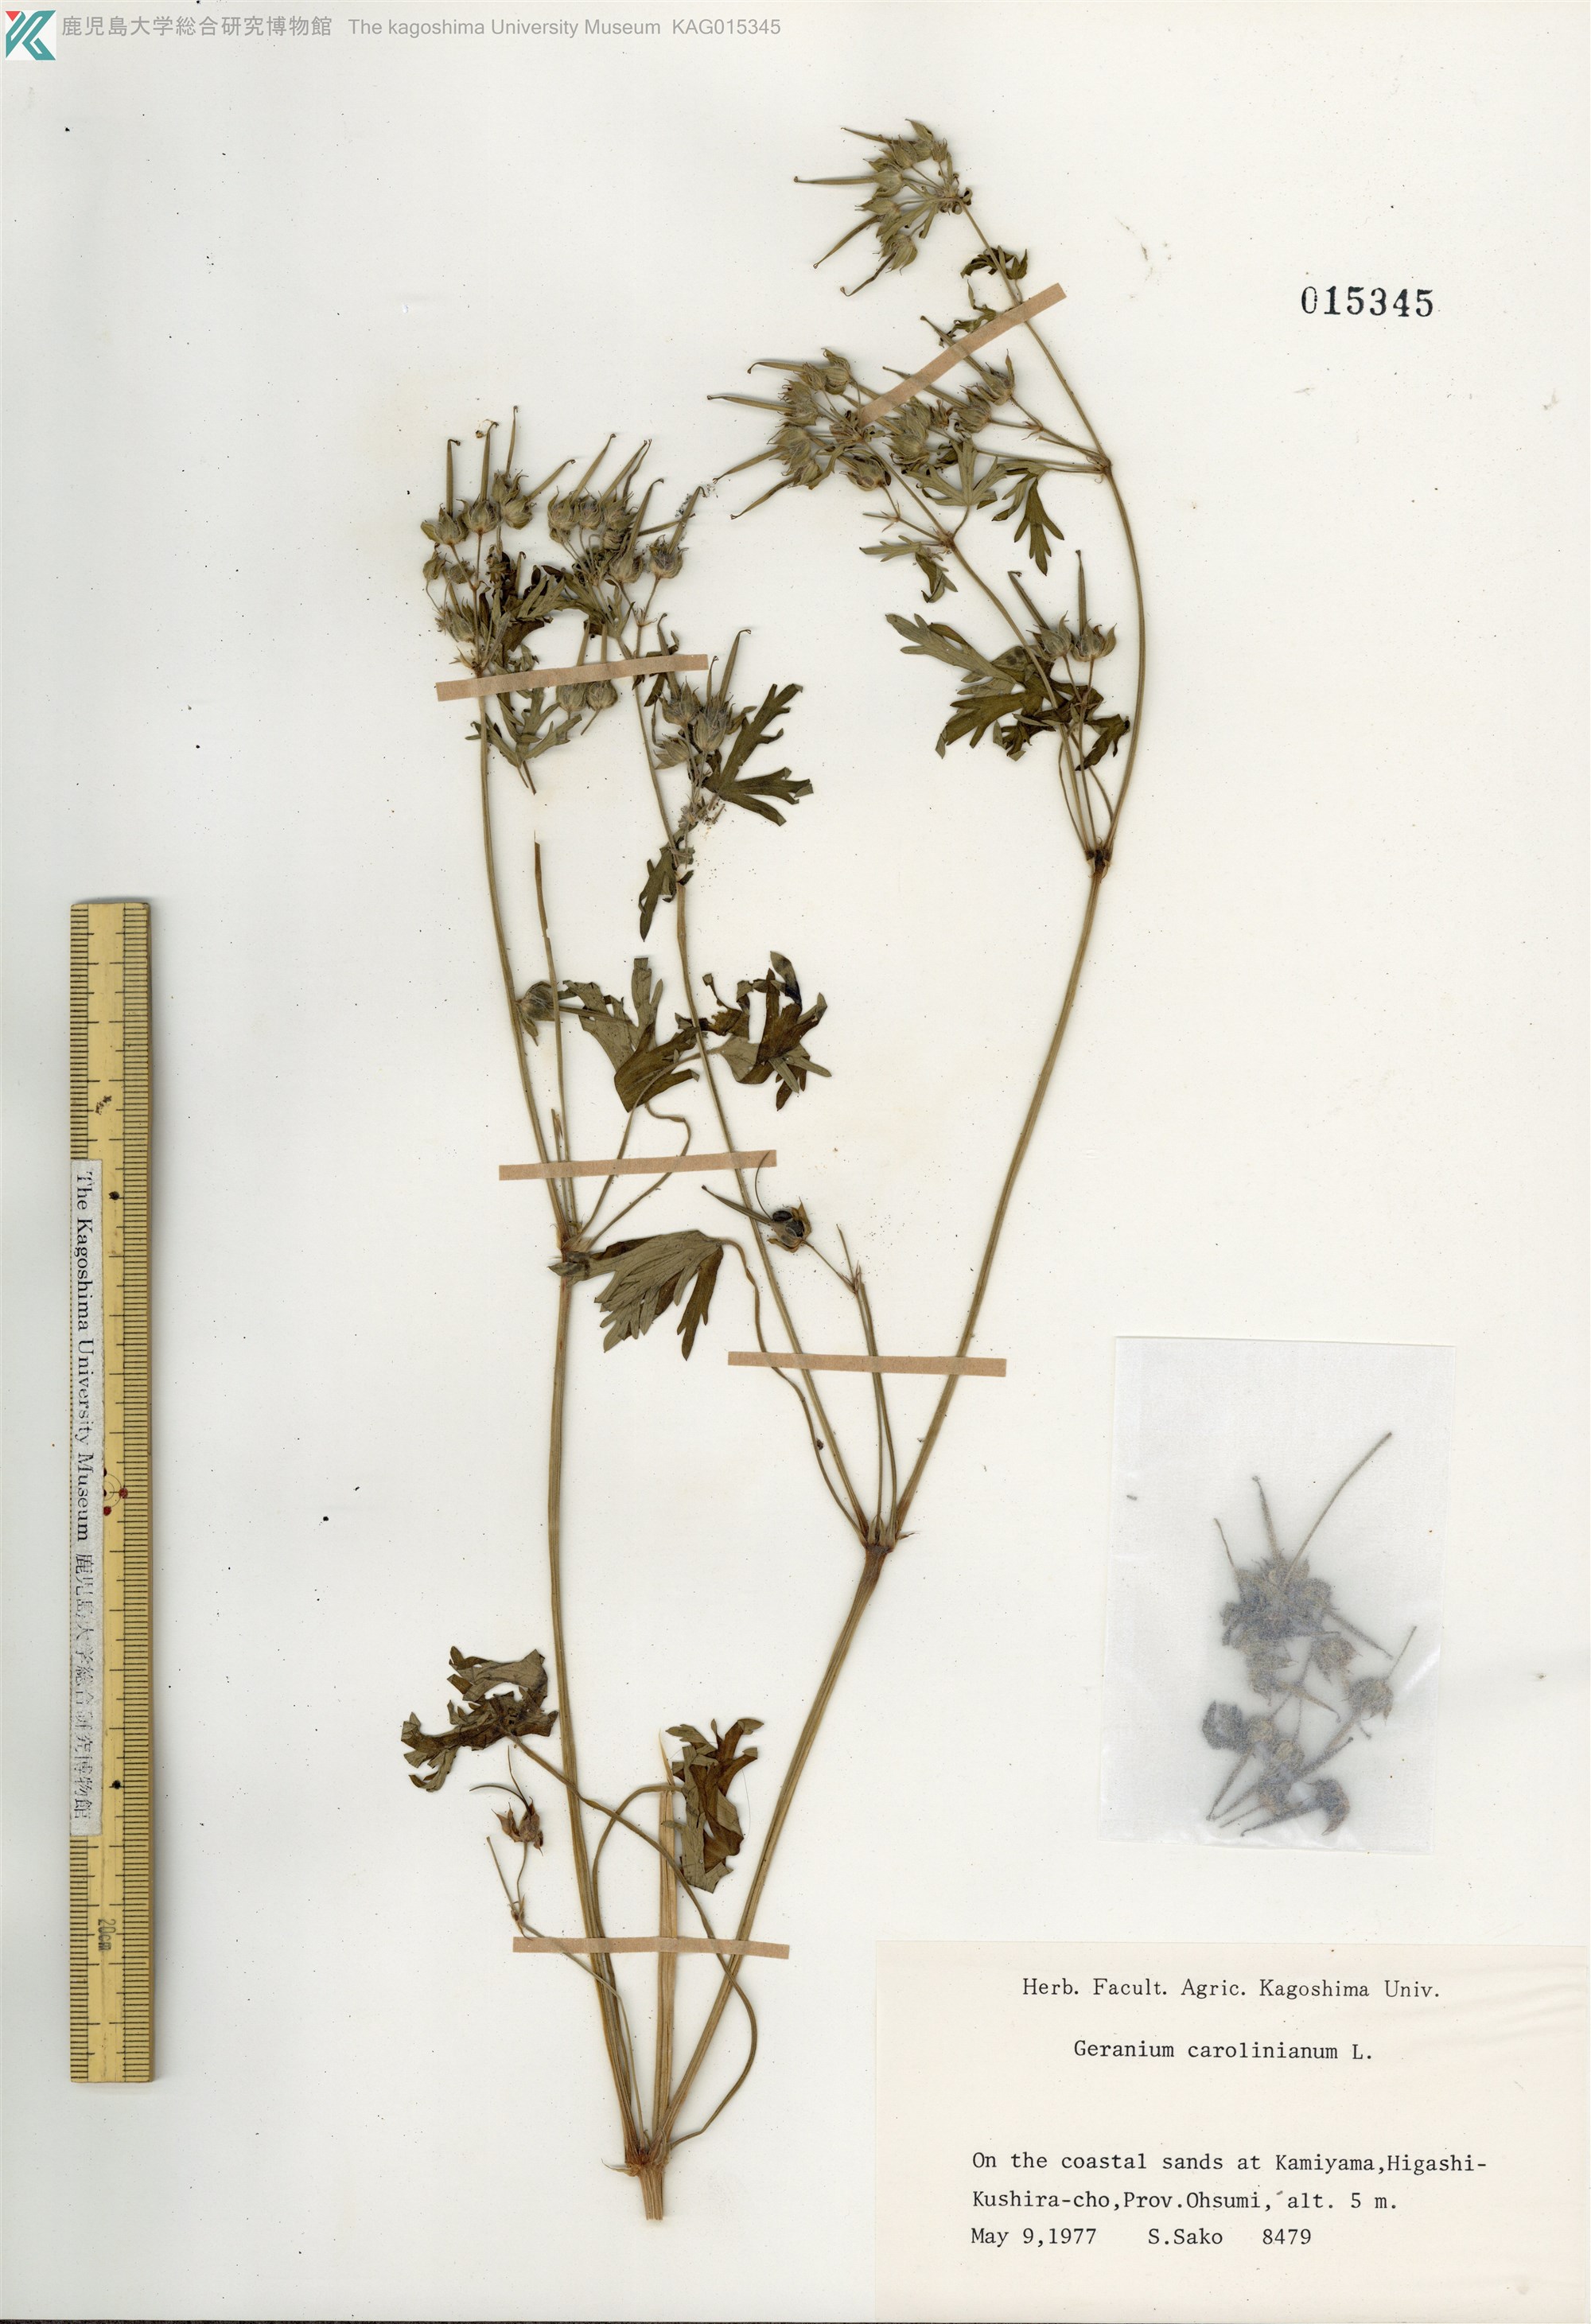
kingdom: Plantae
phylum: Tracheophyta
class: Magnoliopsida
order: Geraniales
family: Geraniaceae
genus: Geranium
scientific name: Geranium carolinianum
